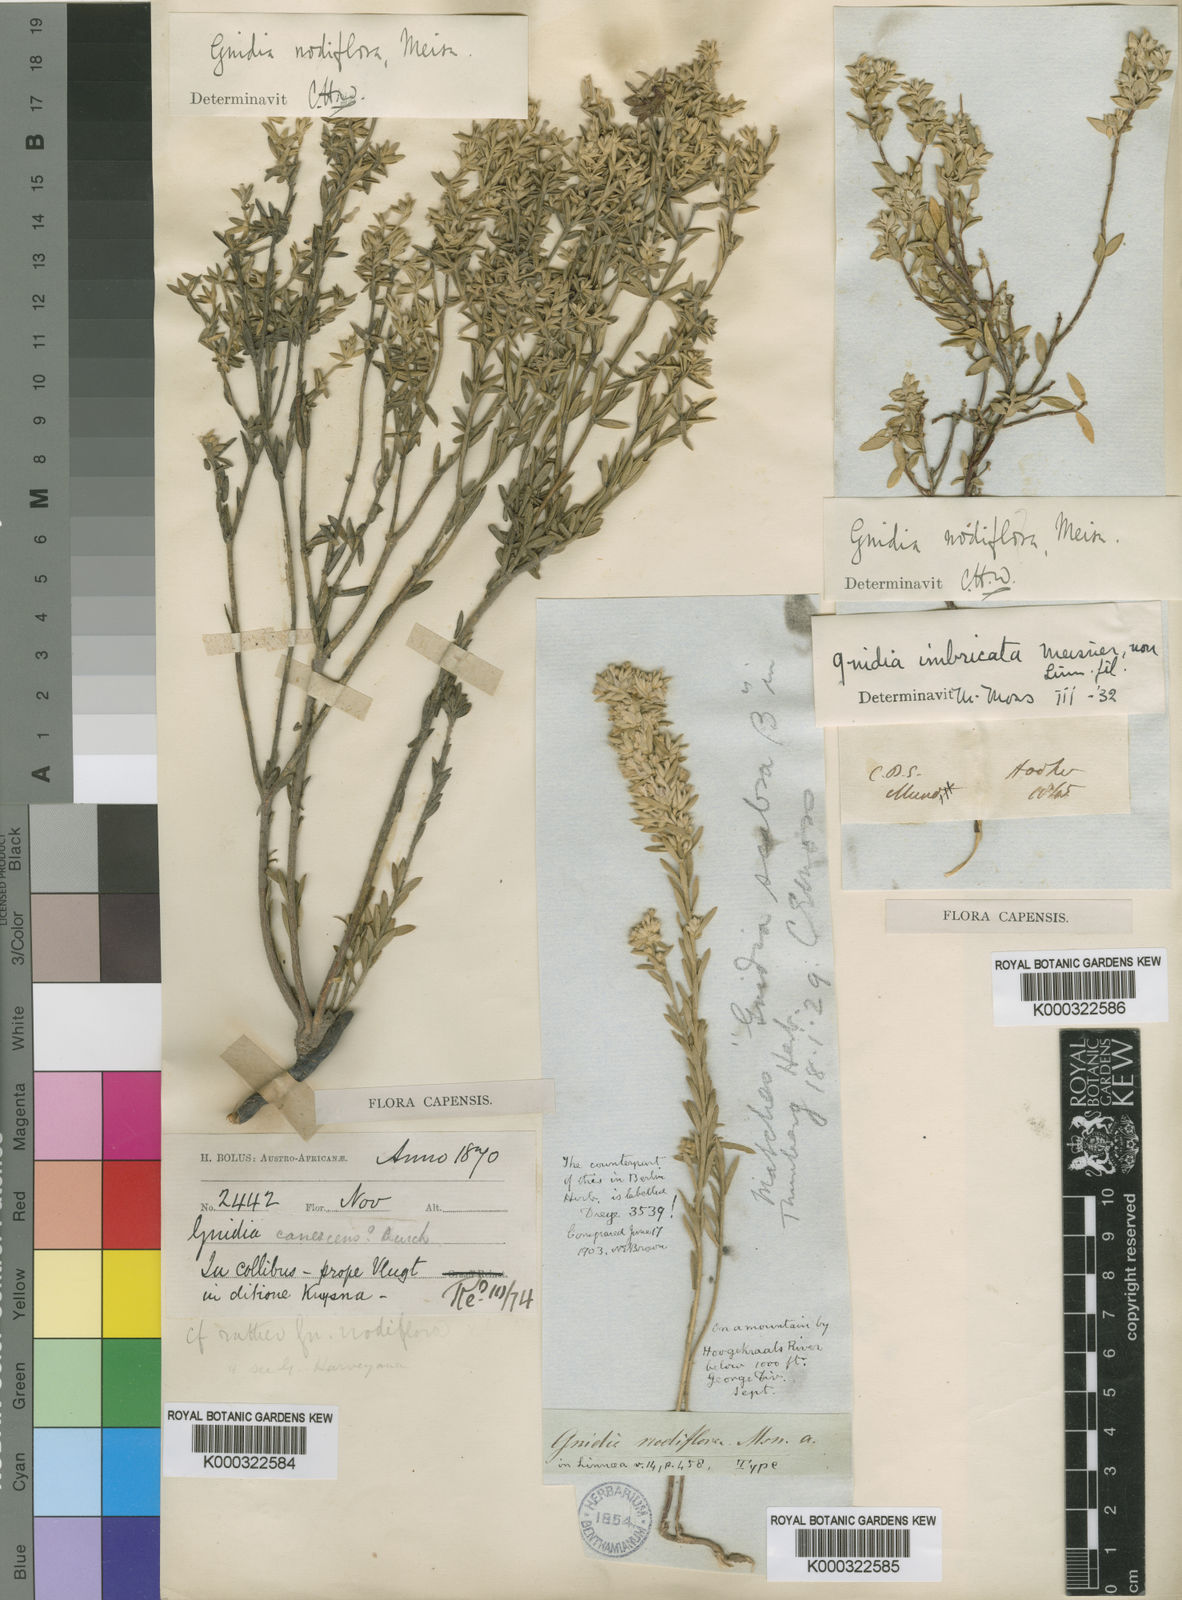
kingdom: Plantae
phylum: Tracheophyta
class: Magnoliopsida
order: Malvales
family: Thymelaeaceae
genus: Gnidia
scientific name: Gnidia imbricata
